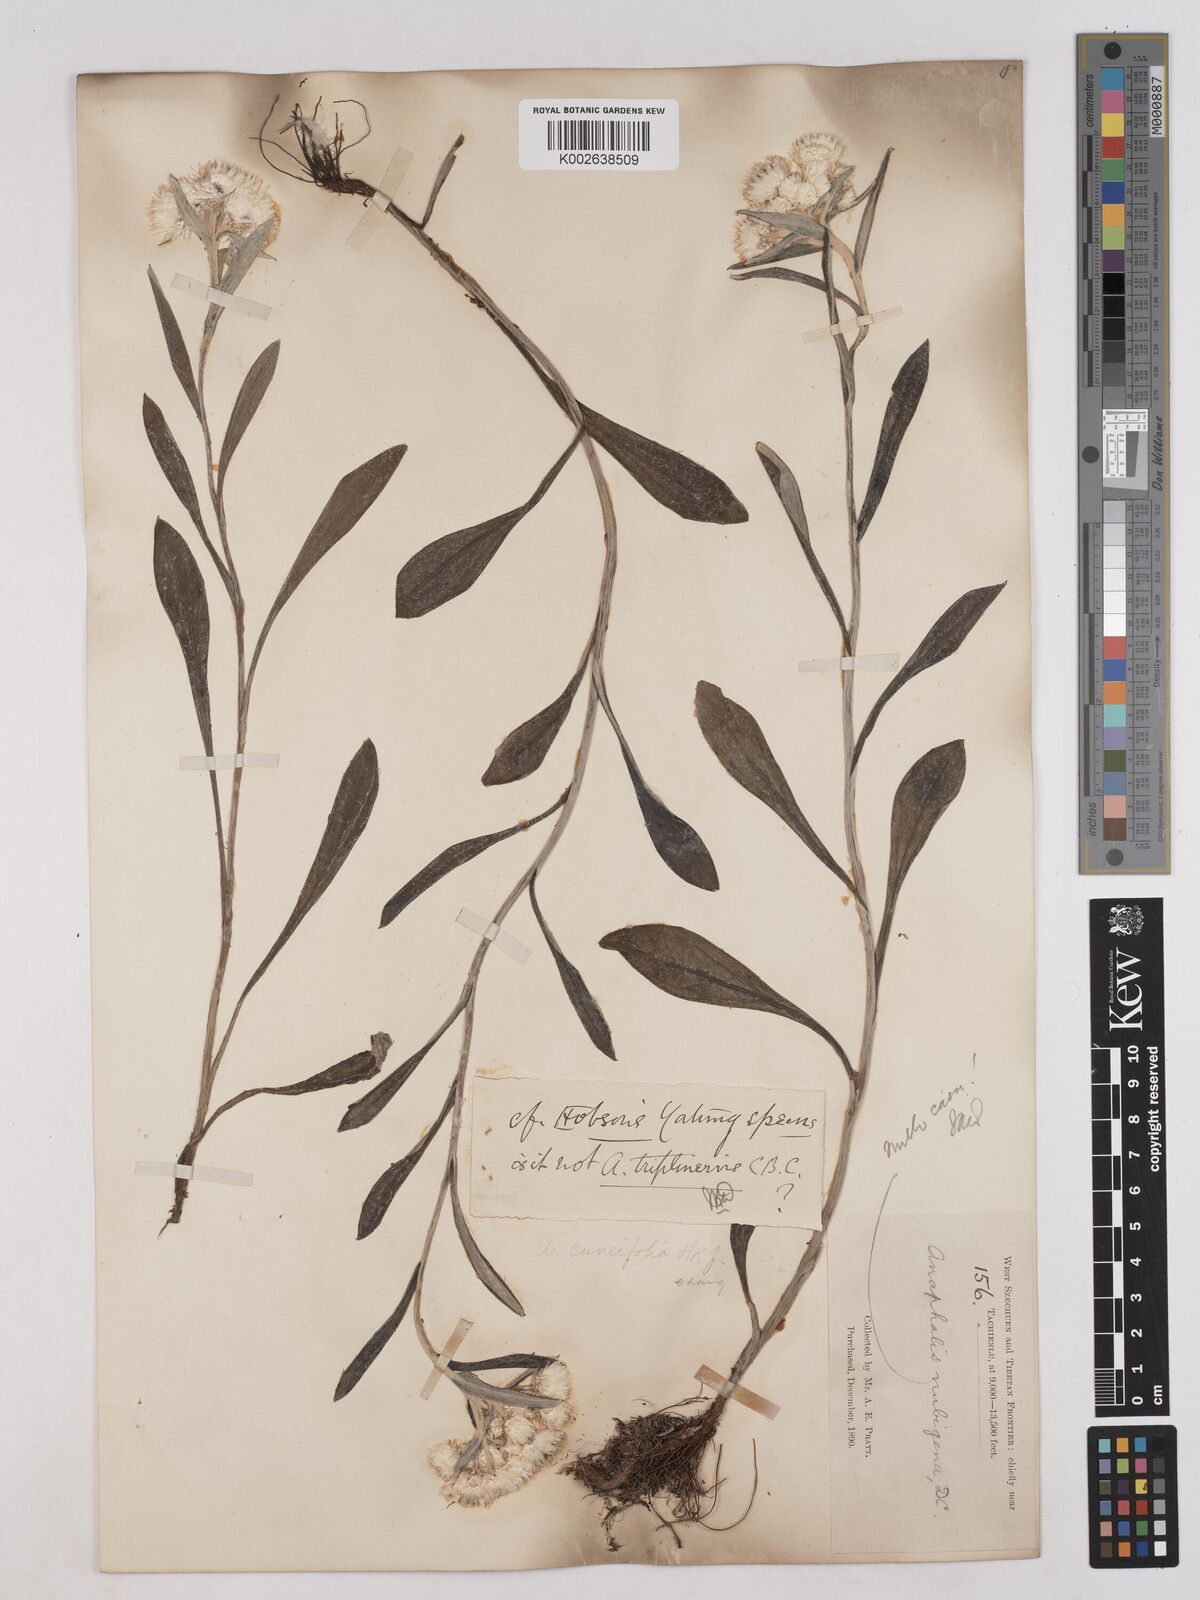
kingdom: Plantae
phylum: Tracheophyta
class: Magnoliopsida
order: Asterales
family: Asteraceae
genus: Anaphalis
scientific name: Anaphalis nepalensis
